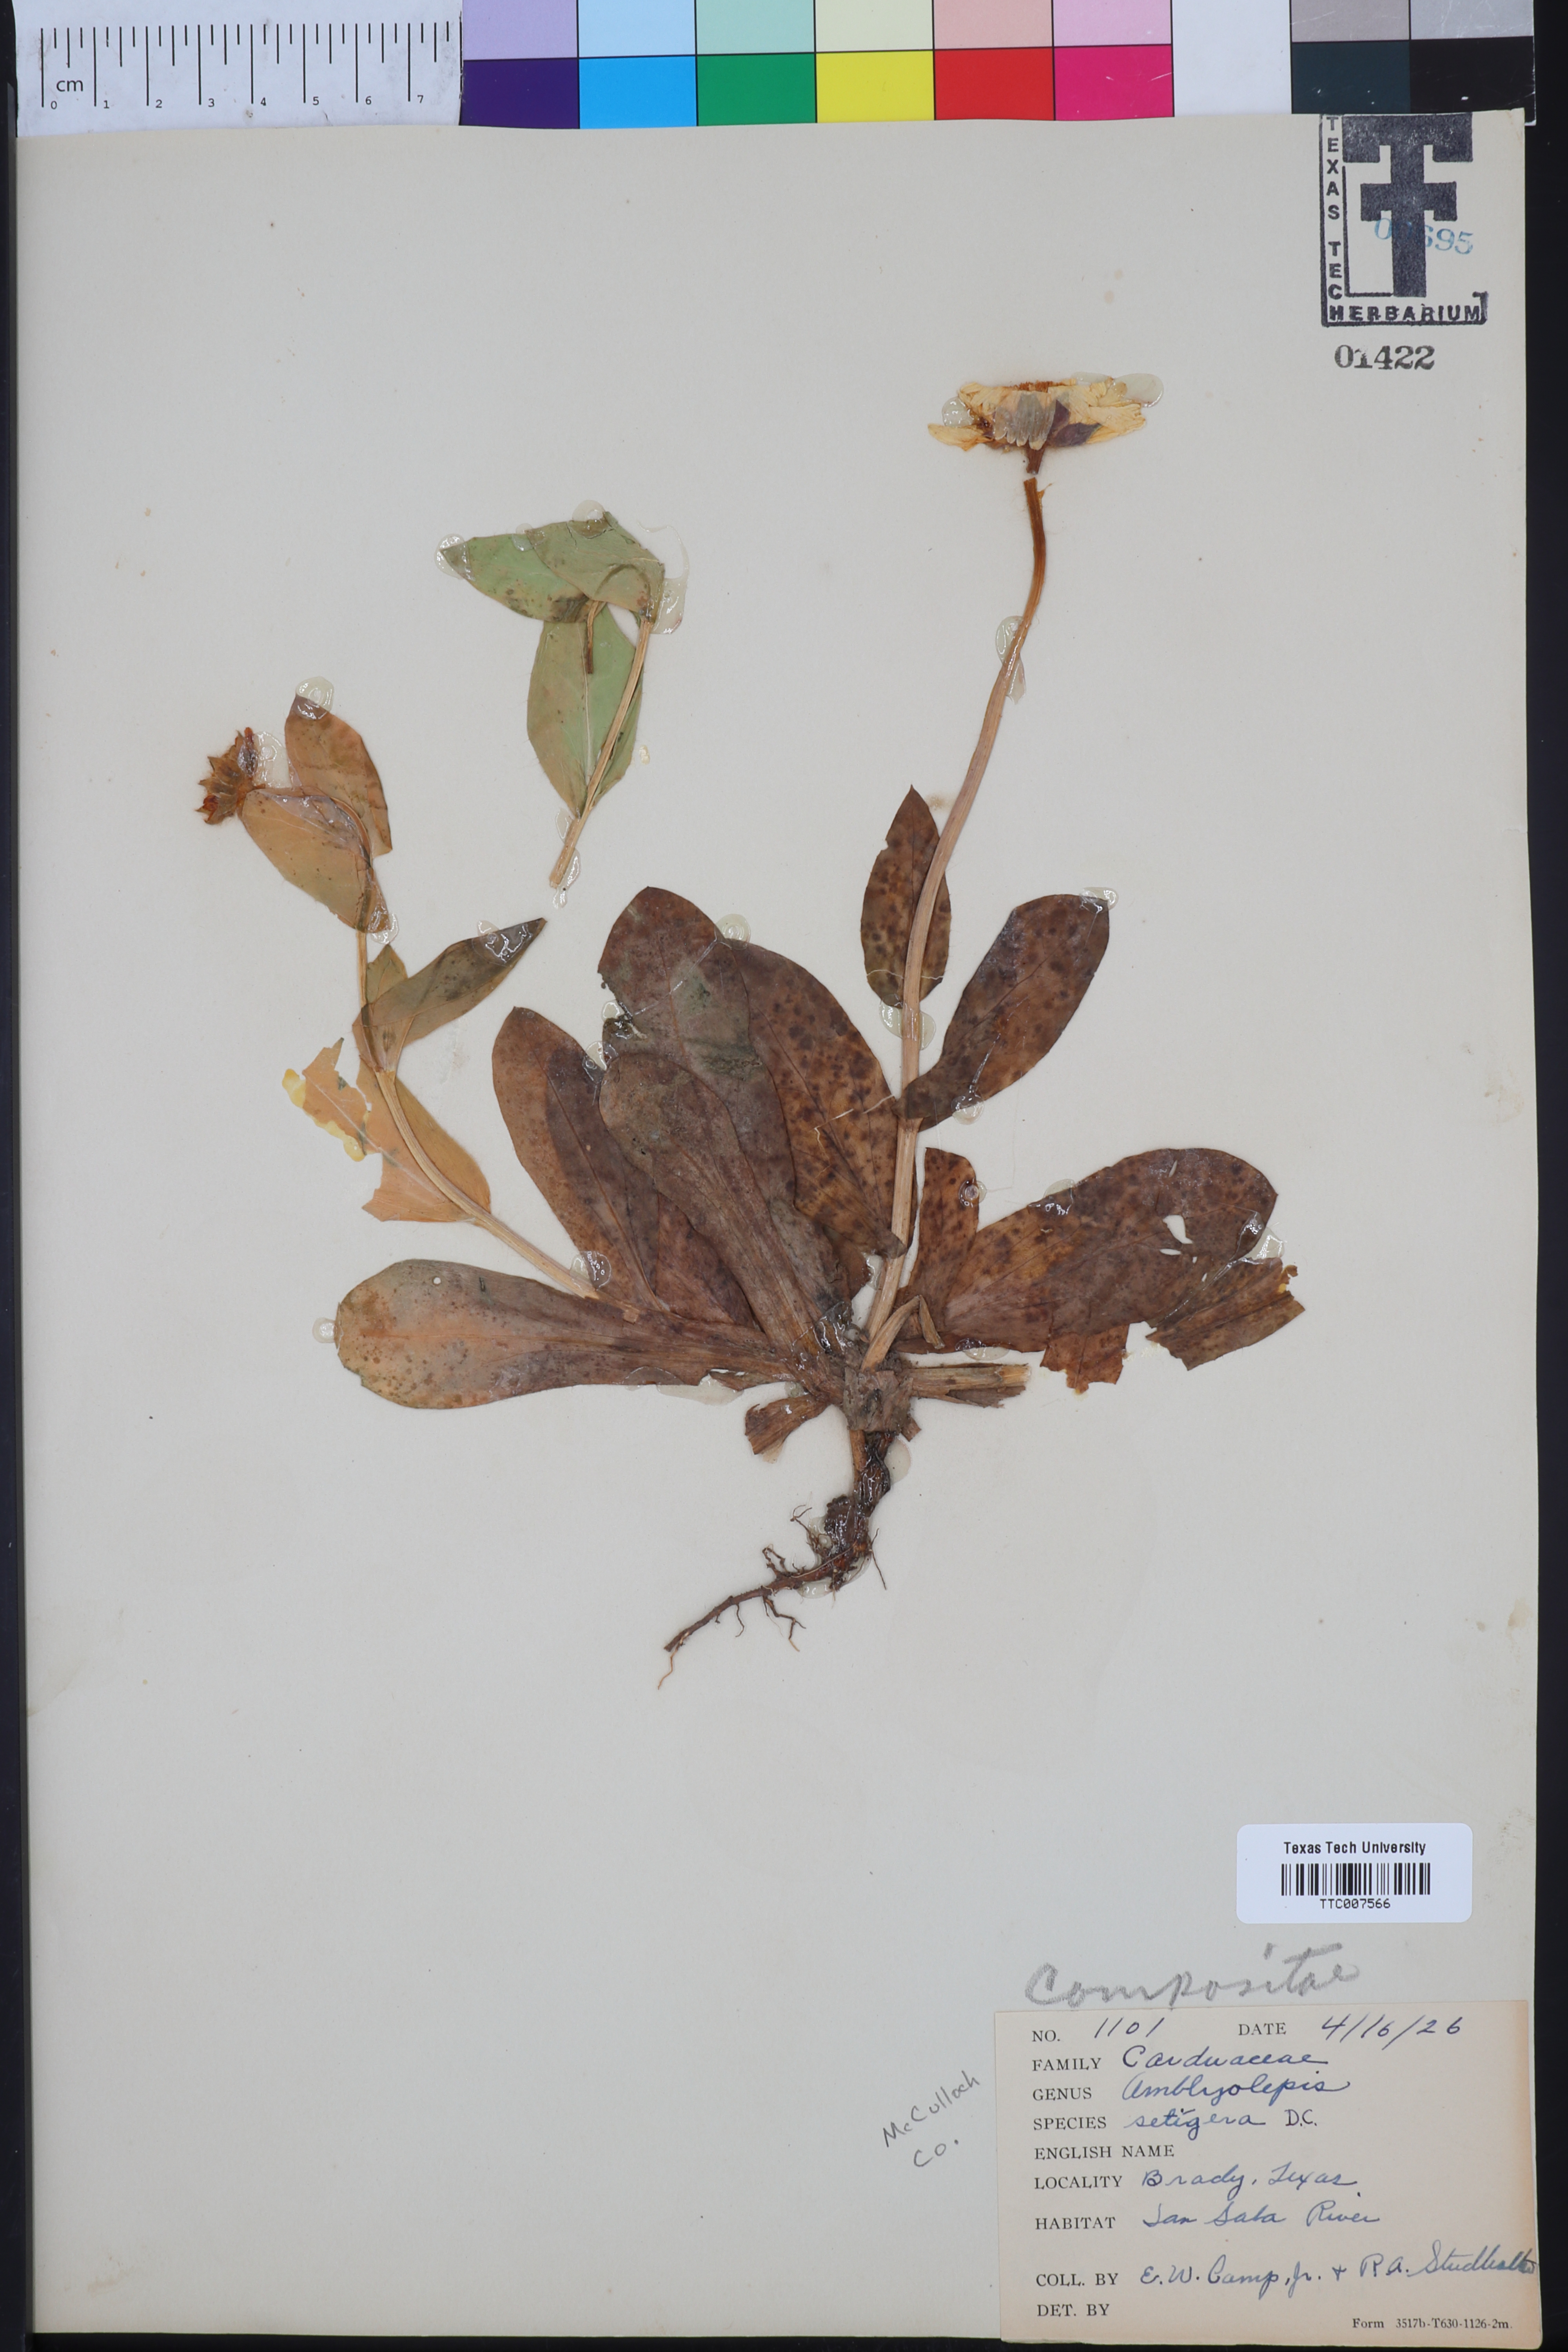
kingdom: Plantae
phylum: Tracheophyta
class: Magnoliopsida
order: Asterales
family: Asteraceae
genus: Amblyolepis
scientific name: Amblyolepis setigera
